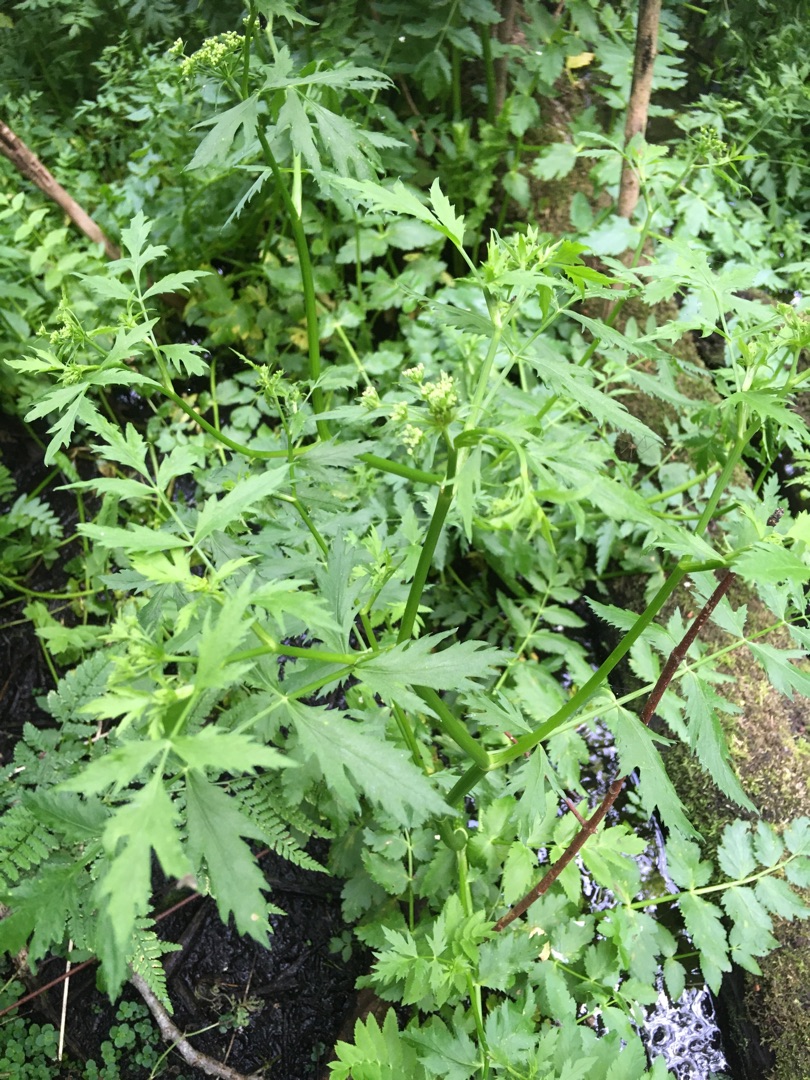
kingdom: Plantae
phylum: Tracheophyta
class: Magnoliopsida
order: Apiales
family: Apiaceae
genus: Berula
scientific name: Berula erecta
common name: Sideskærm
